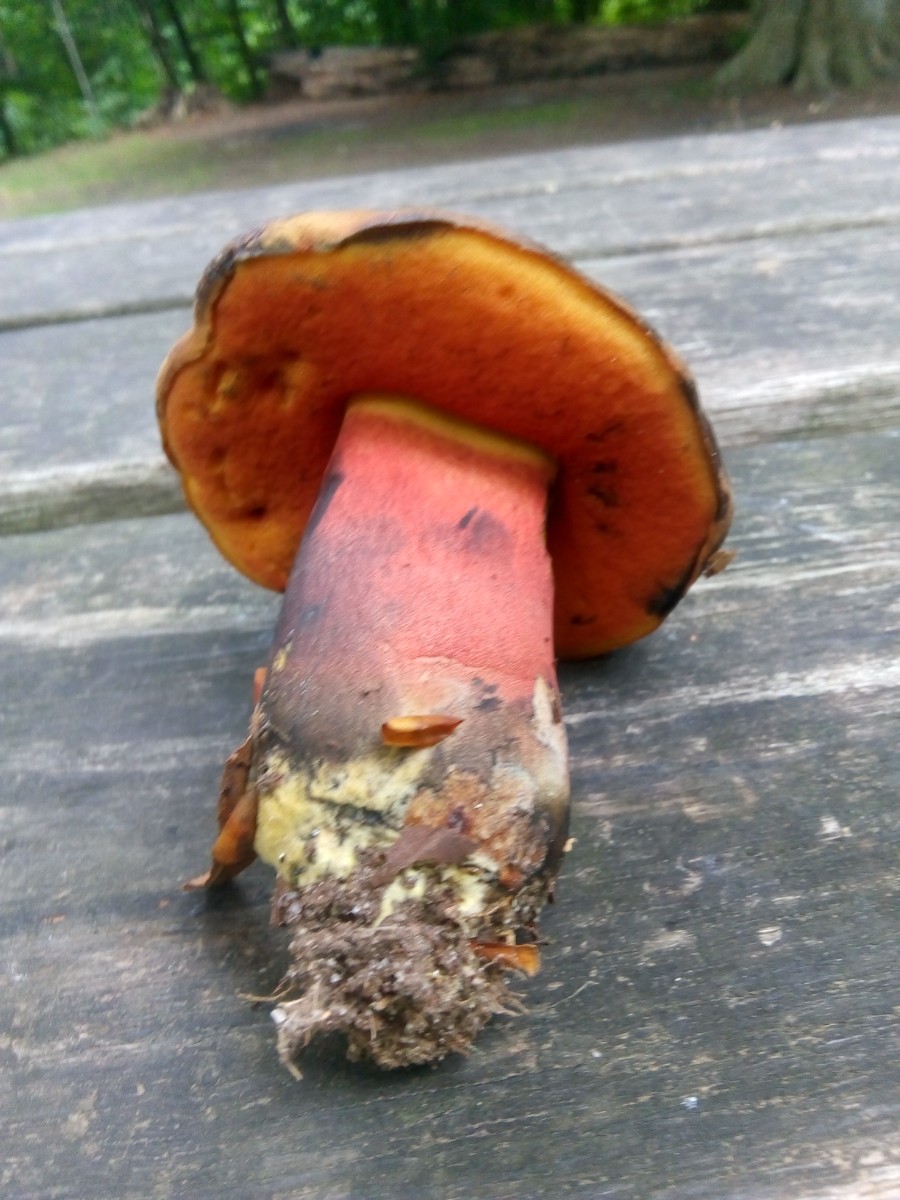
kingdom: Fungi
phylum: Basidiomycota
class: Agaricomycetes
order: Boletales
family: Boletaceae
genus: Neoboletus
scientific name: Neoboletus xanthopus
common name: finprikket indigorørhat
